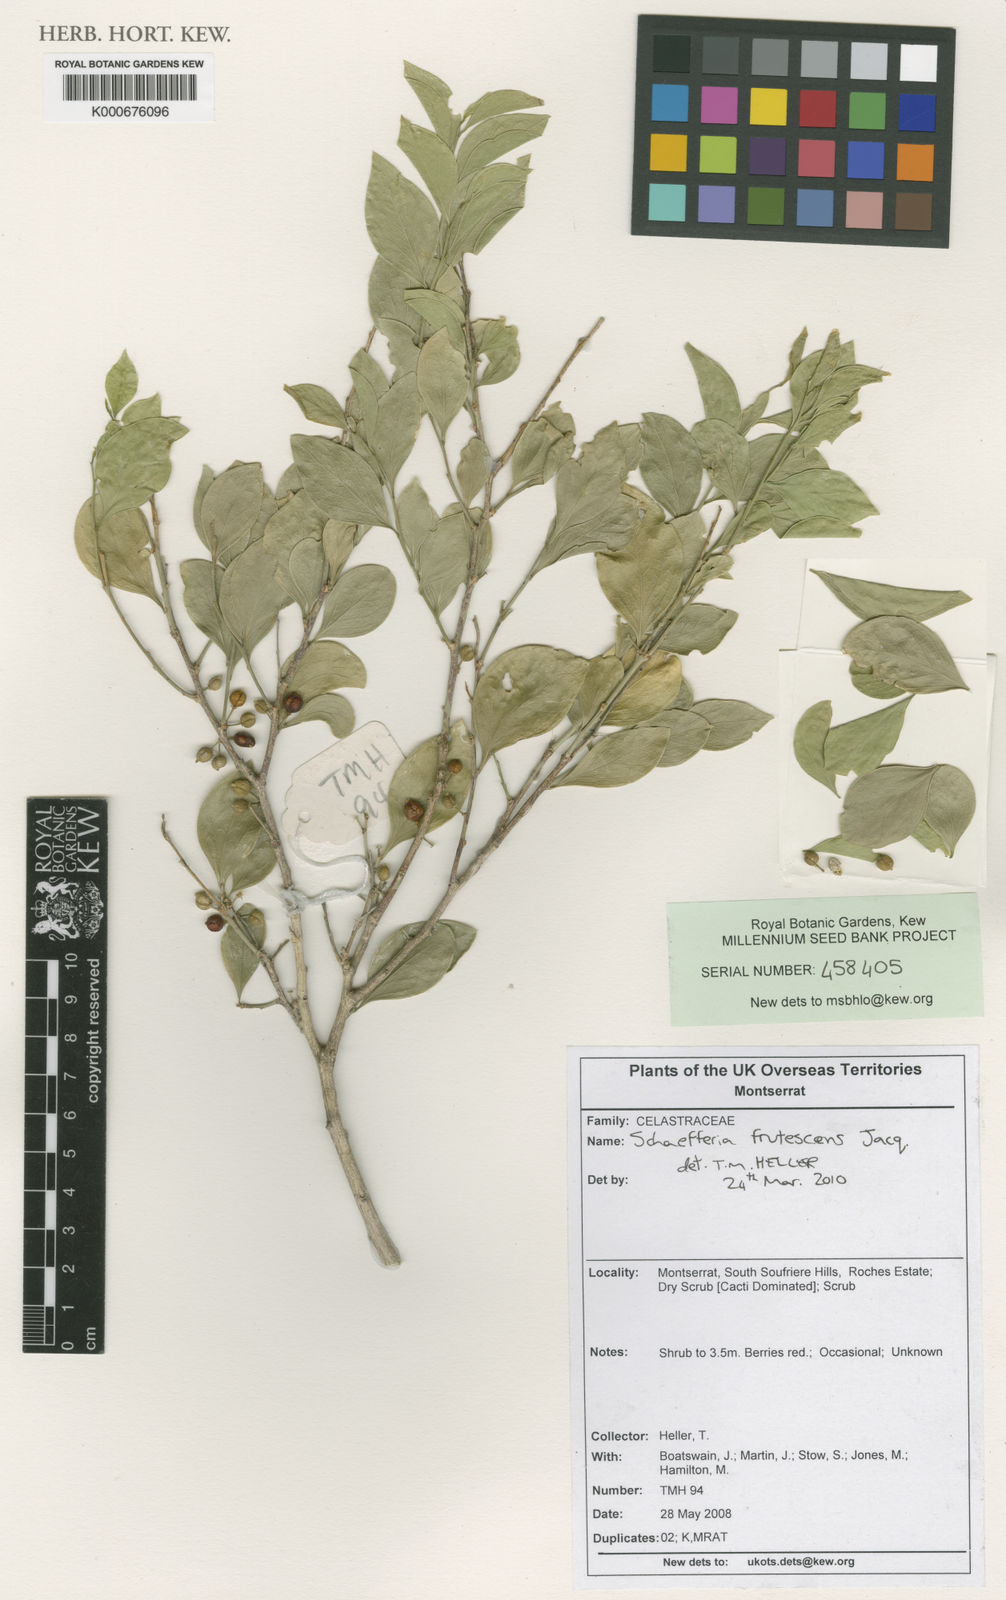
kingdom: Plantae
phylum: Tracheophyta
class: Magnoliopsida
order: Celastrales
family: Celastraceae
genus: Schaefferia
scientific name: Schaefferia frutescens
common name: Boxwood
